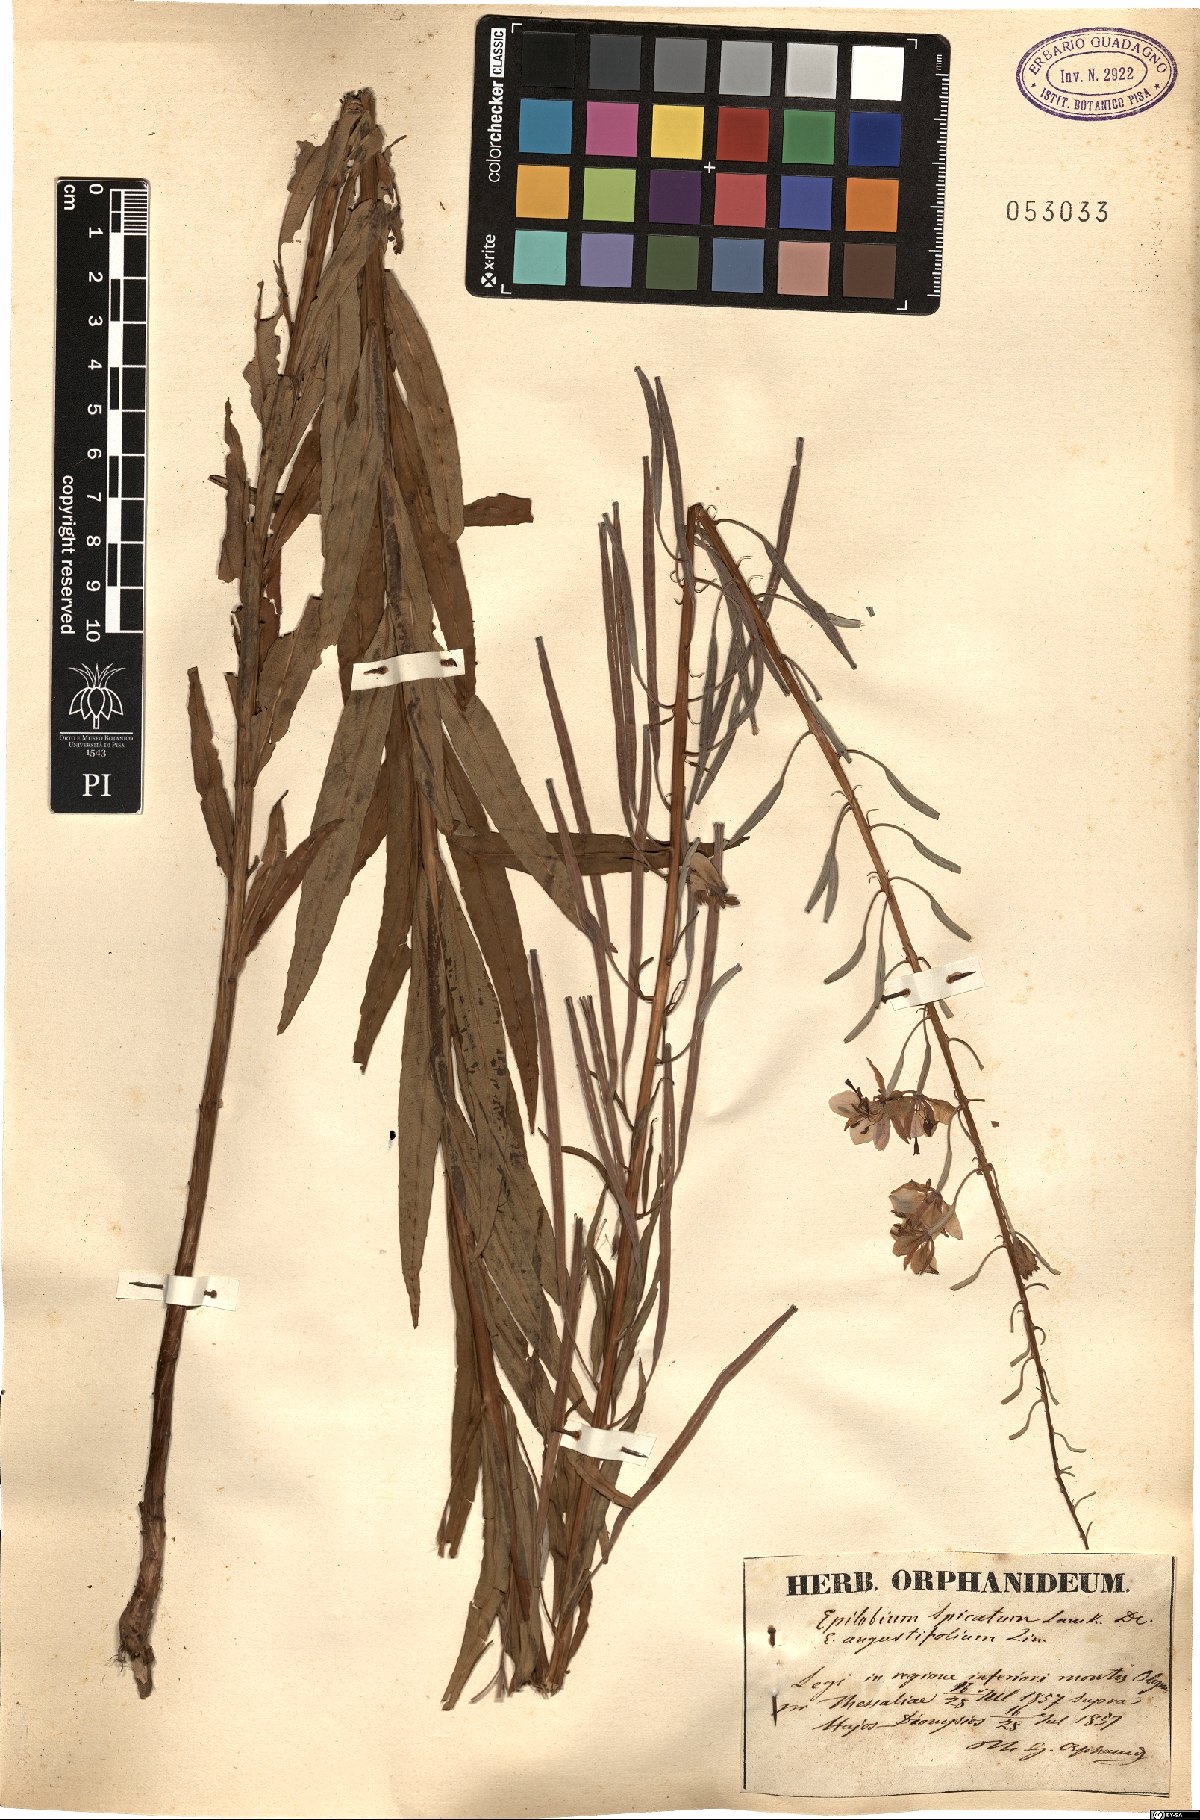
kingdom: Plantae
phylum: Tracheophyta
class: Magnoliopsida
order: Myrtales
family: Onagraceae
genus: Chamaenerion
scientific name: Chamaenerion angustifolium
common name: Fireweed
